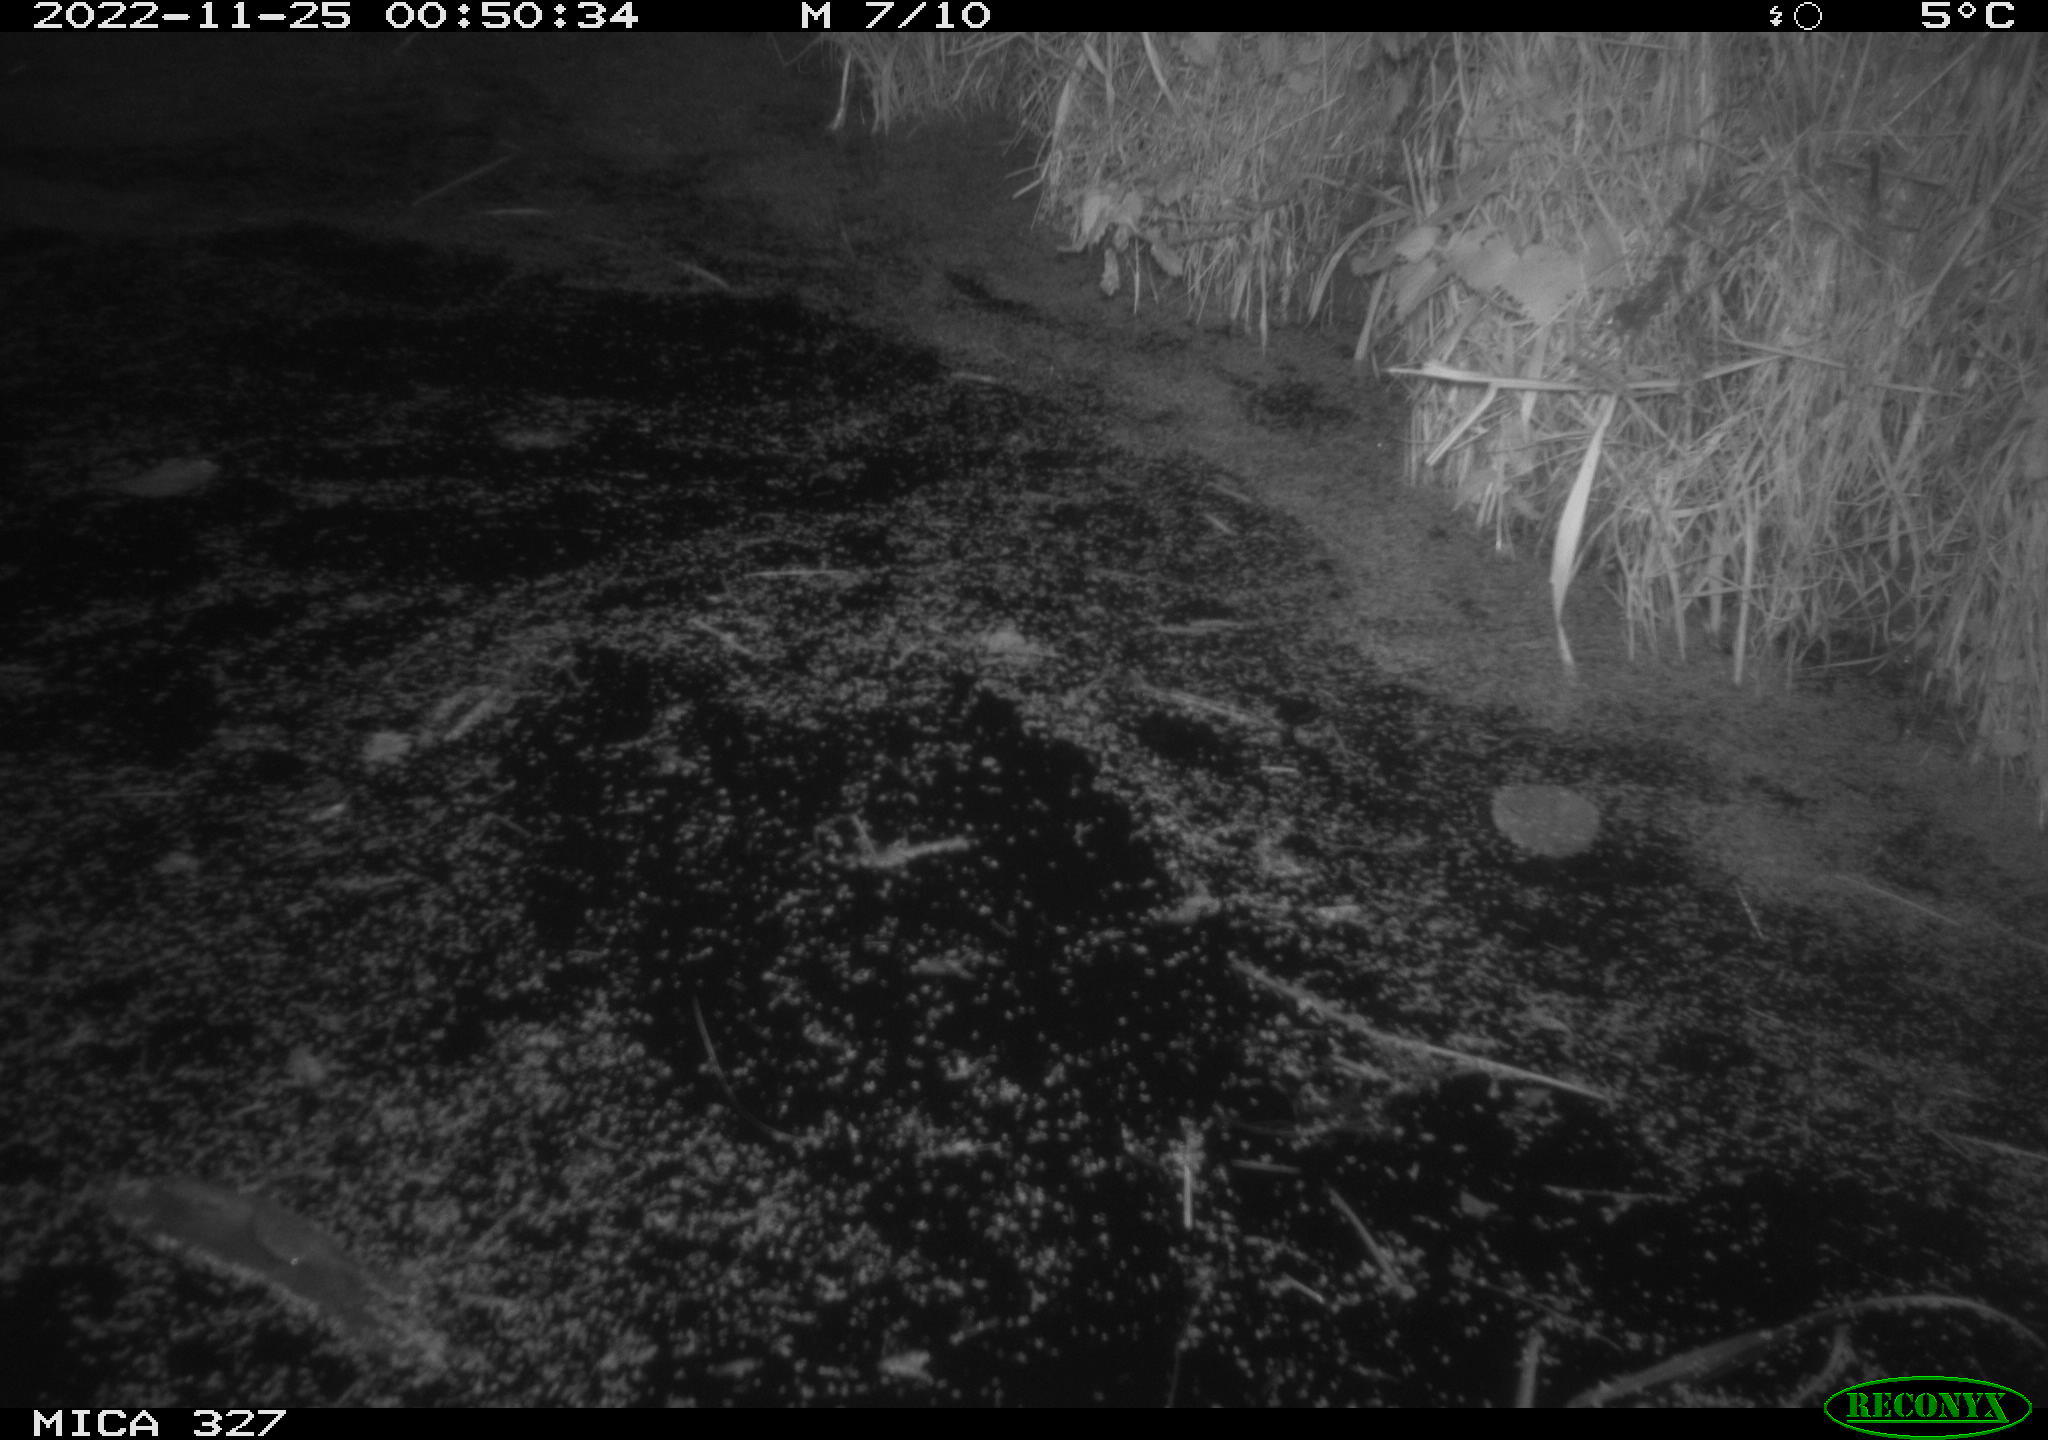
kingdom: Animalia
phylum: Chordata
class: Mammalia
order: Rodentia
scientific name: Rodentia
